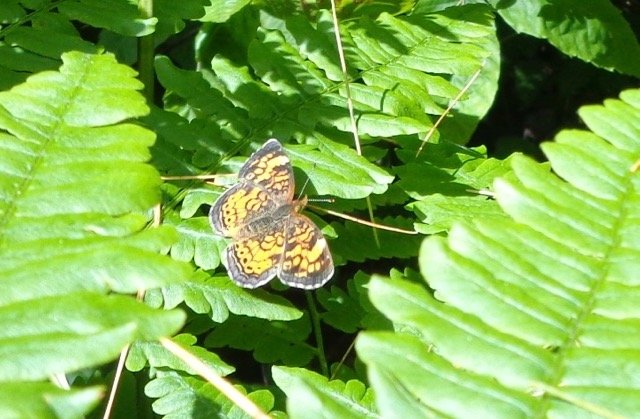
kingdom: Animalia
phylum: Arthropoda
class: Insecta
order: Lepidoptera
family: Nymphalidae
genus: Phyciodes
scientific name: Phyciodes tharos
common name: Pearl Crescent
